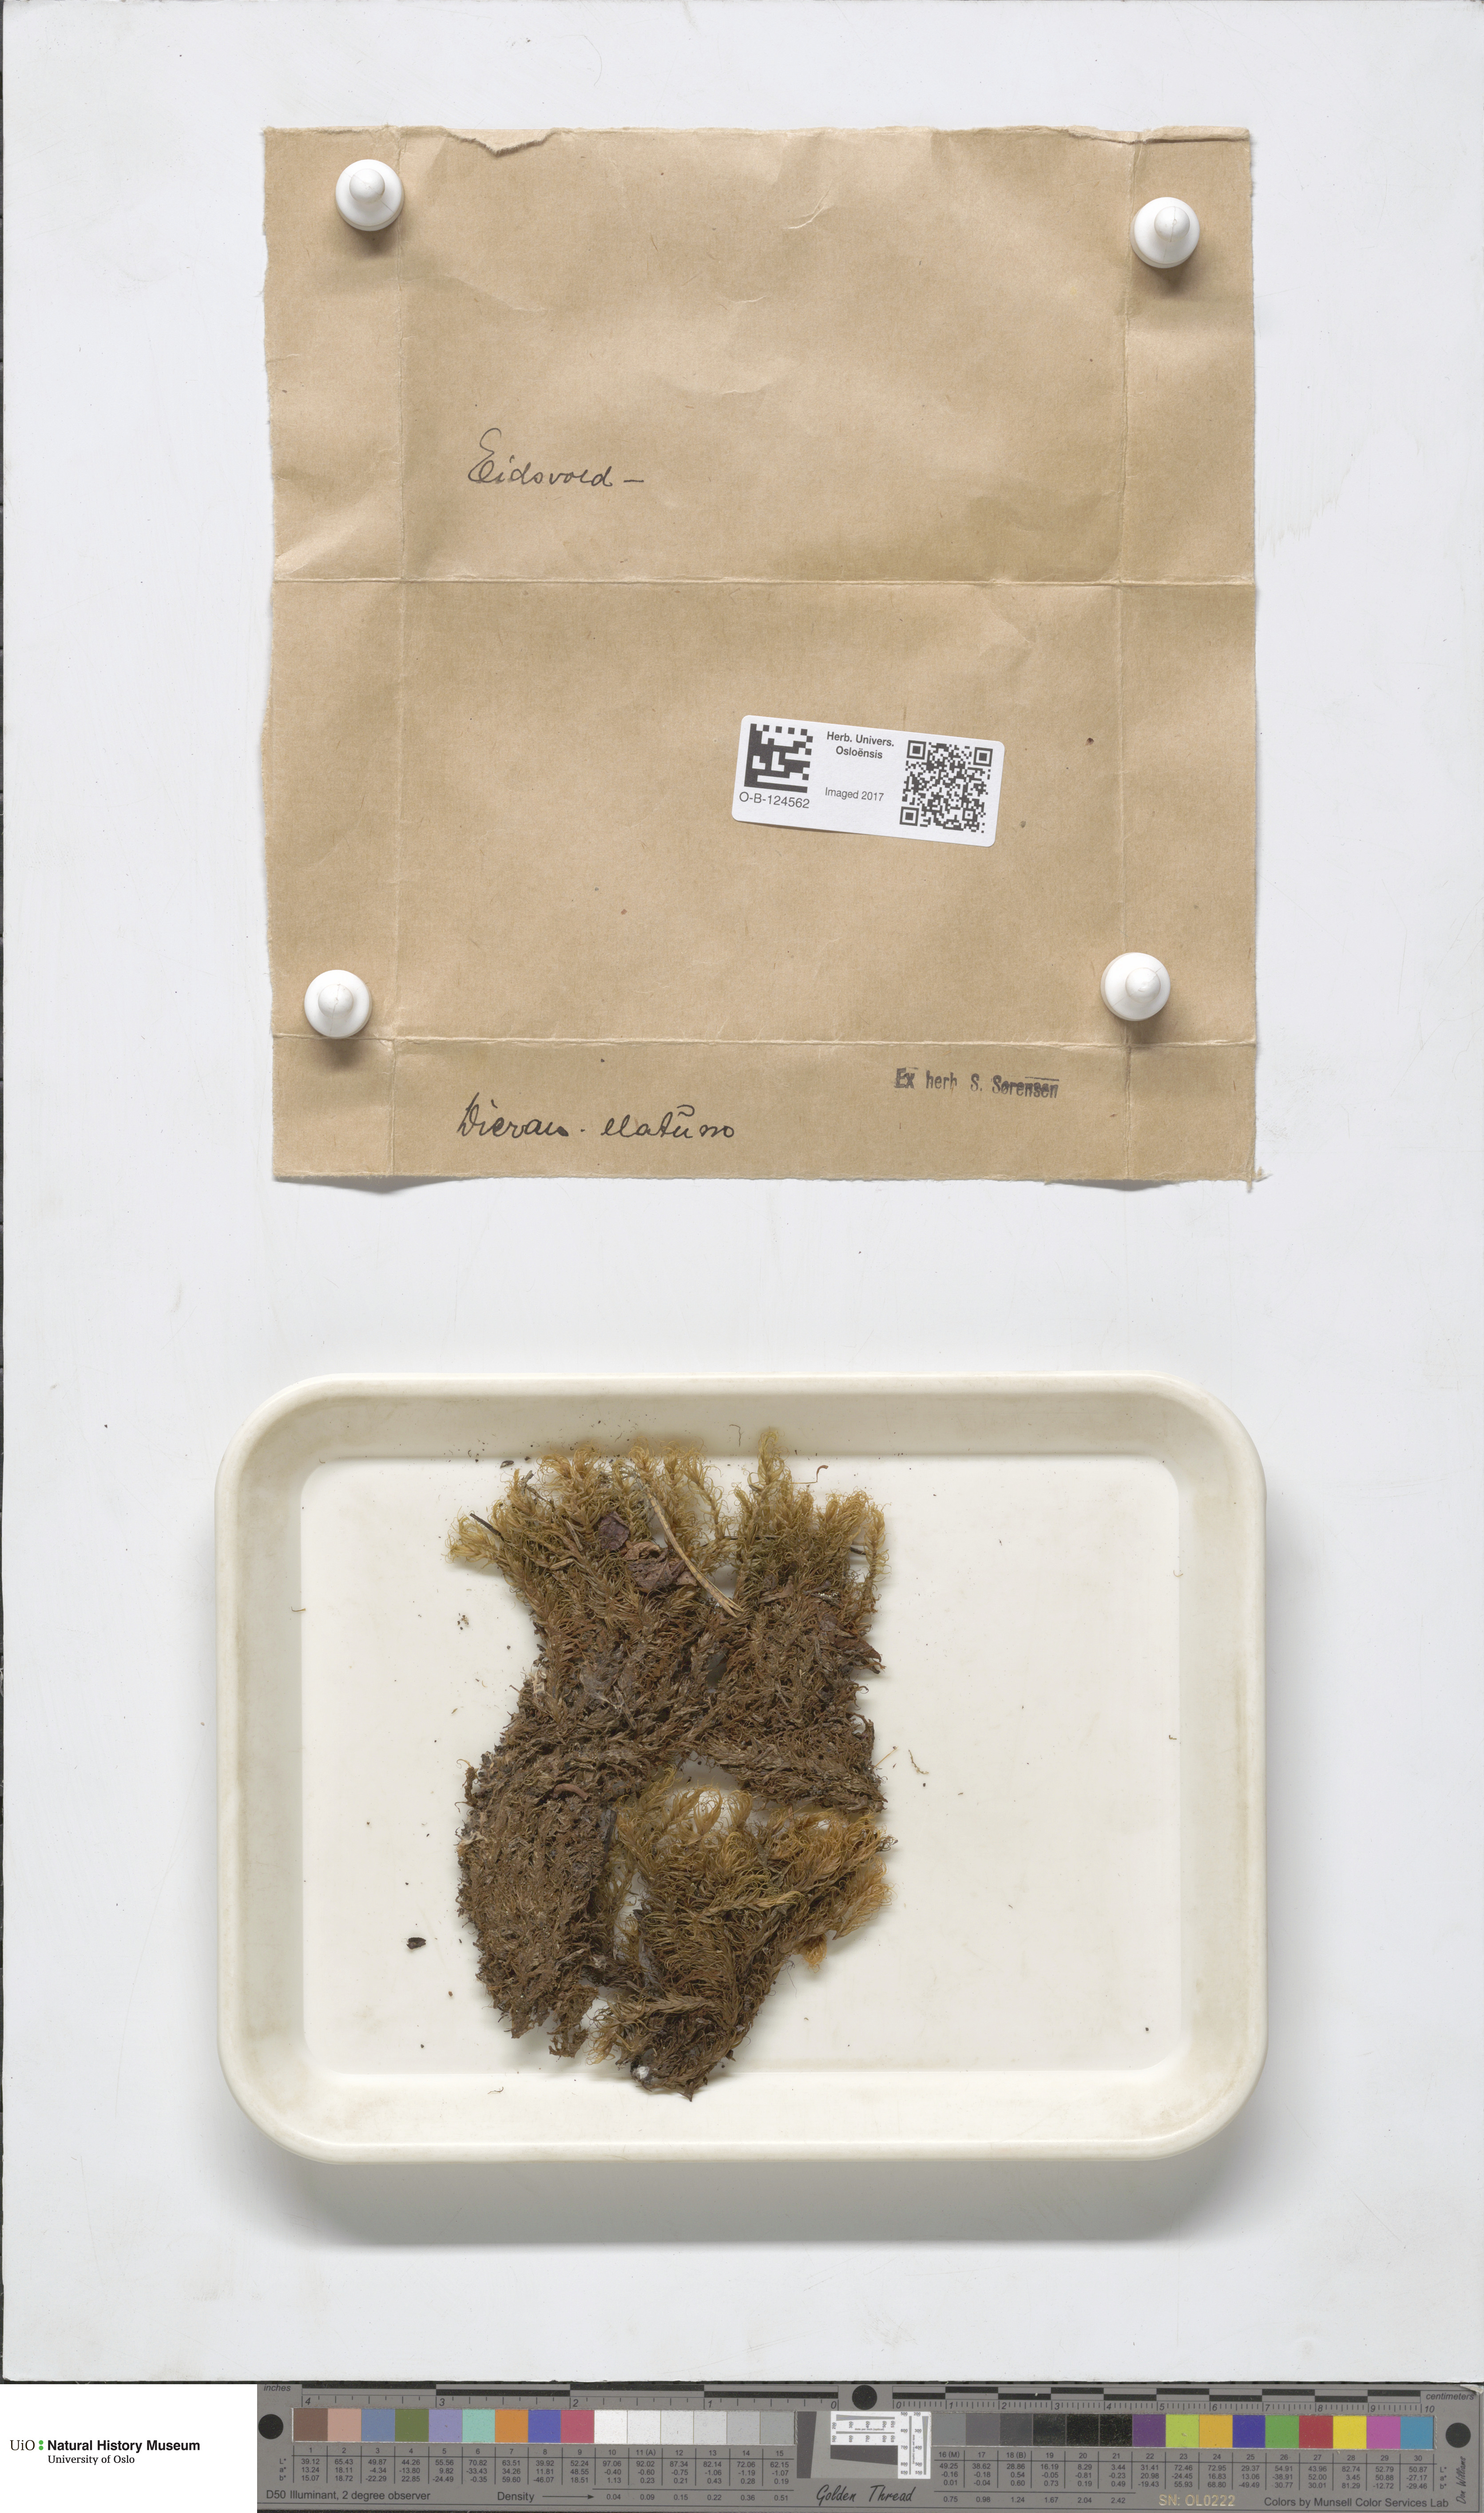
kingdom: Plantae
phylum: Bryophyta
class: Bryopsida
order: Dicranales
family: Dicranaceae
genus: Dicranum
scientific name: Dicranum drummondii
